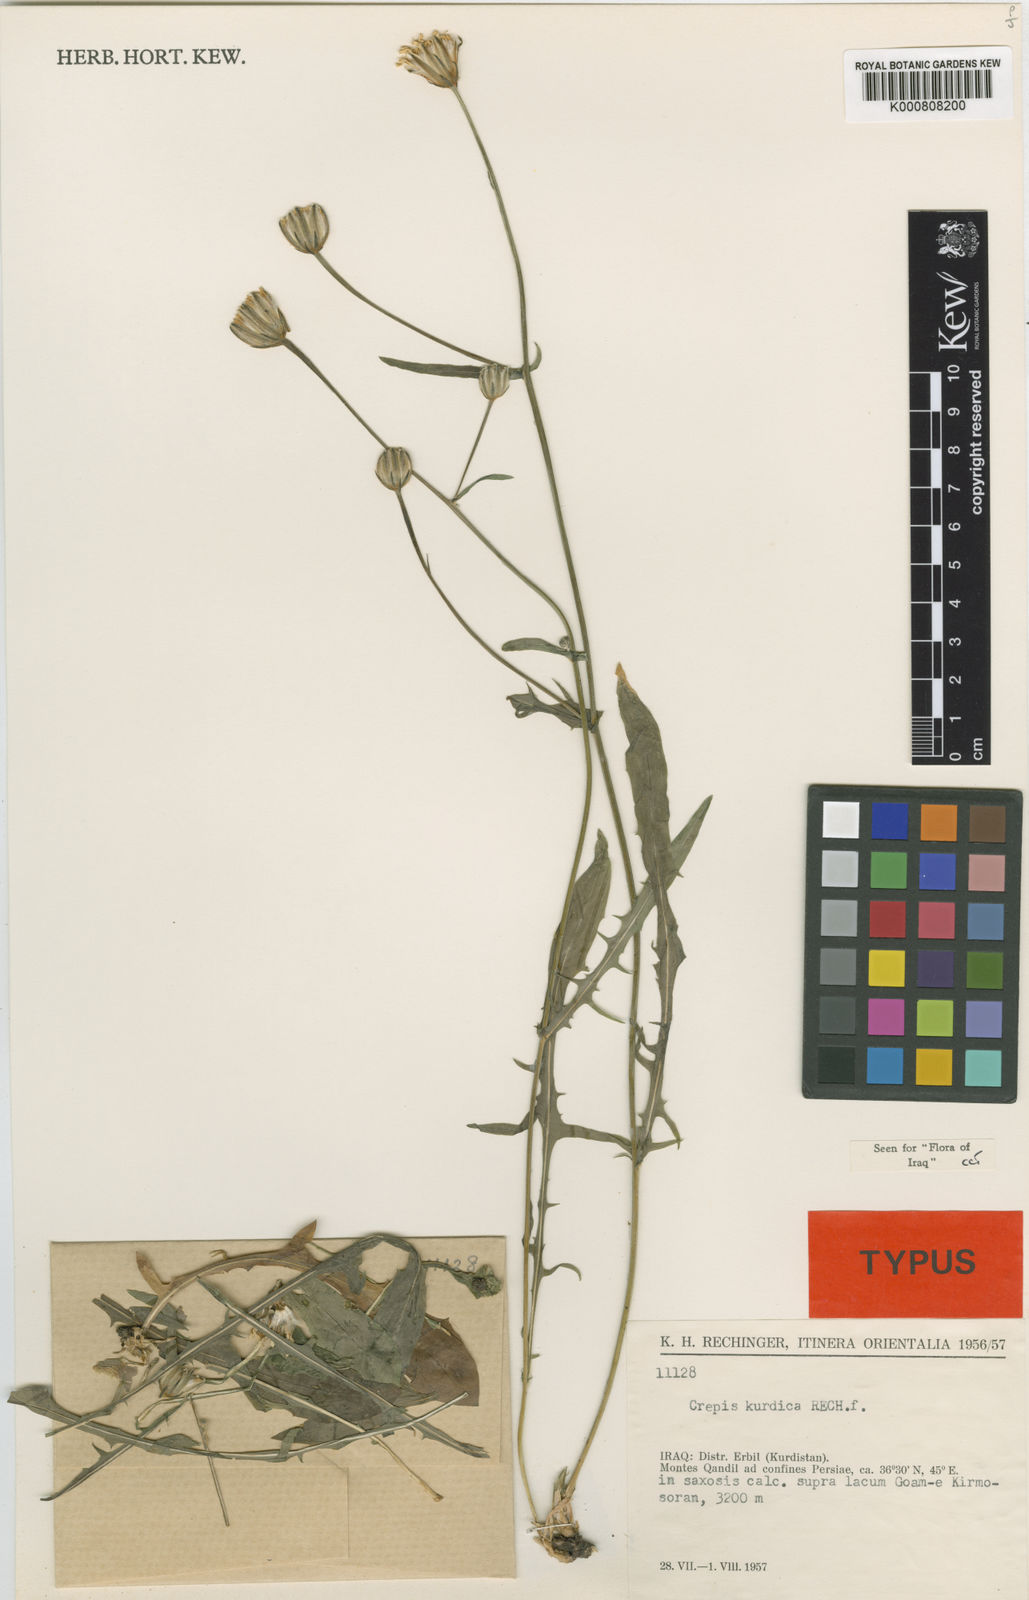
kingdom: Plantae
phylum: Tracheophyta
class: Magnoliopsida
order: Asterales
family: Asteraceae
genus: Crepis
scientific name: Crepis kurdica
